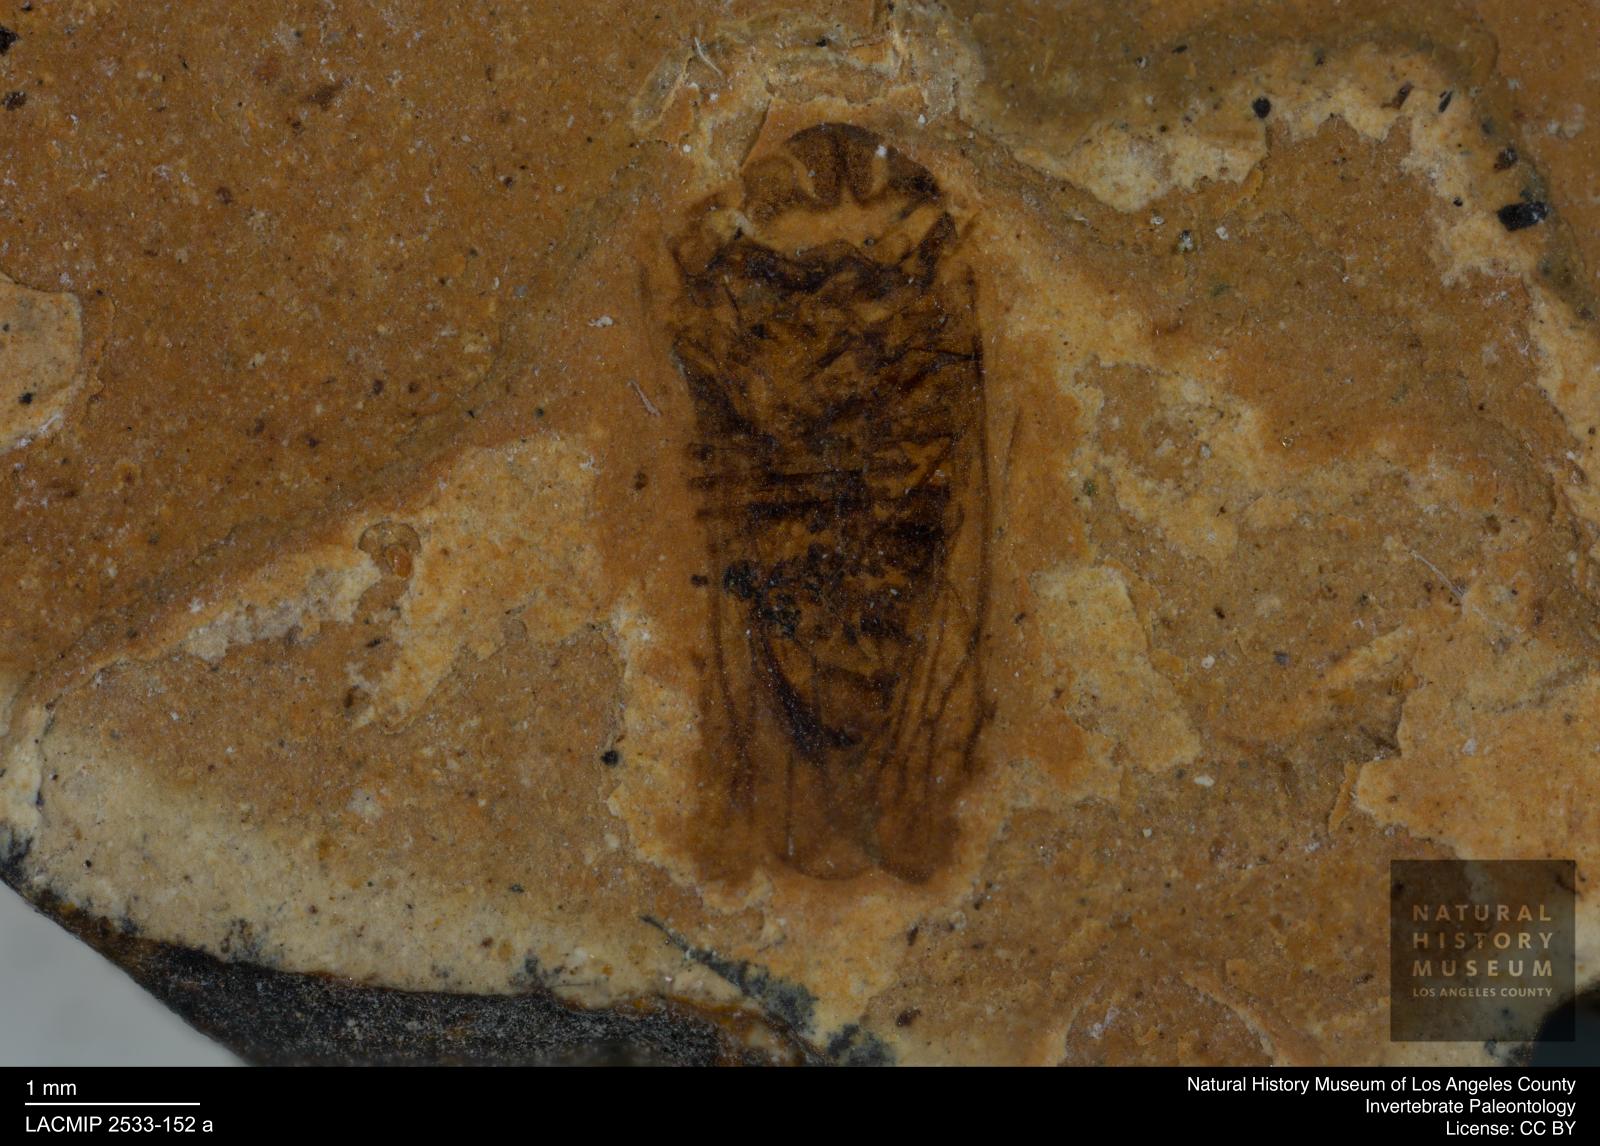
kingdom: Animalia
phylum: Arthropoda
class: Insecta
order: Hemiptera
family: Cicadellidae
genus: Iassus
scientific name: Iassus sepultus
